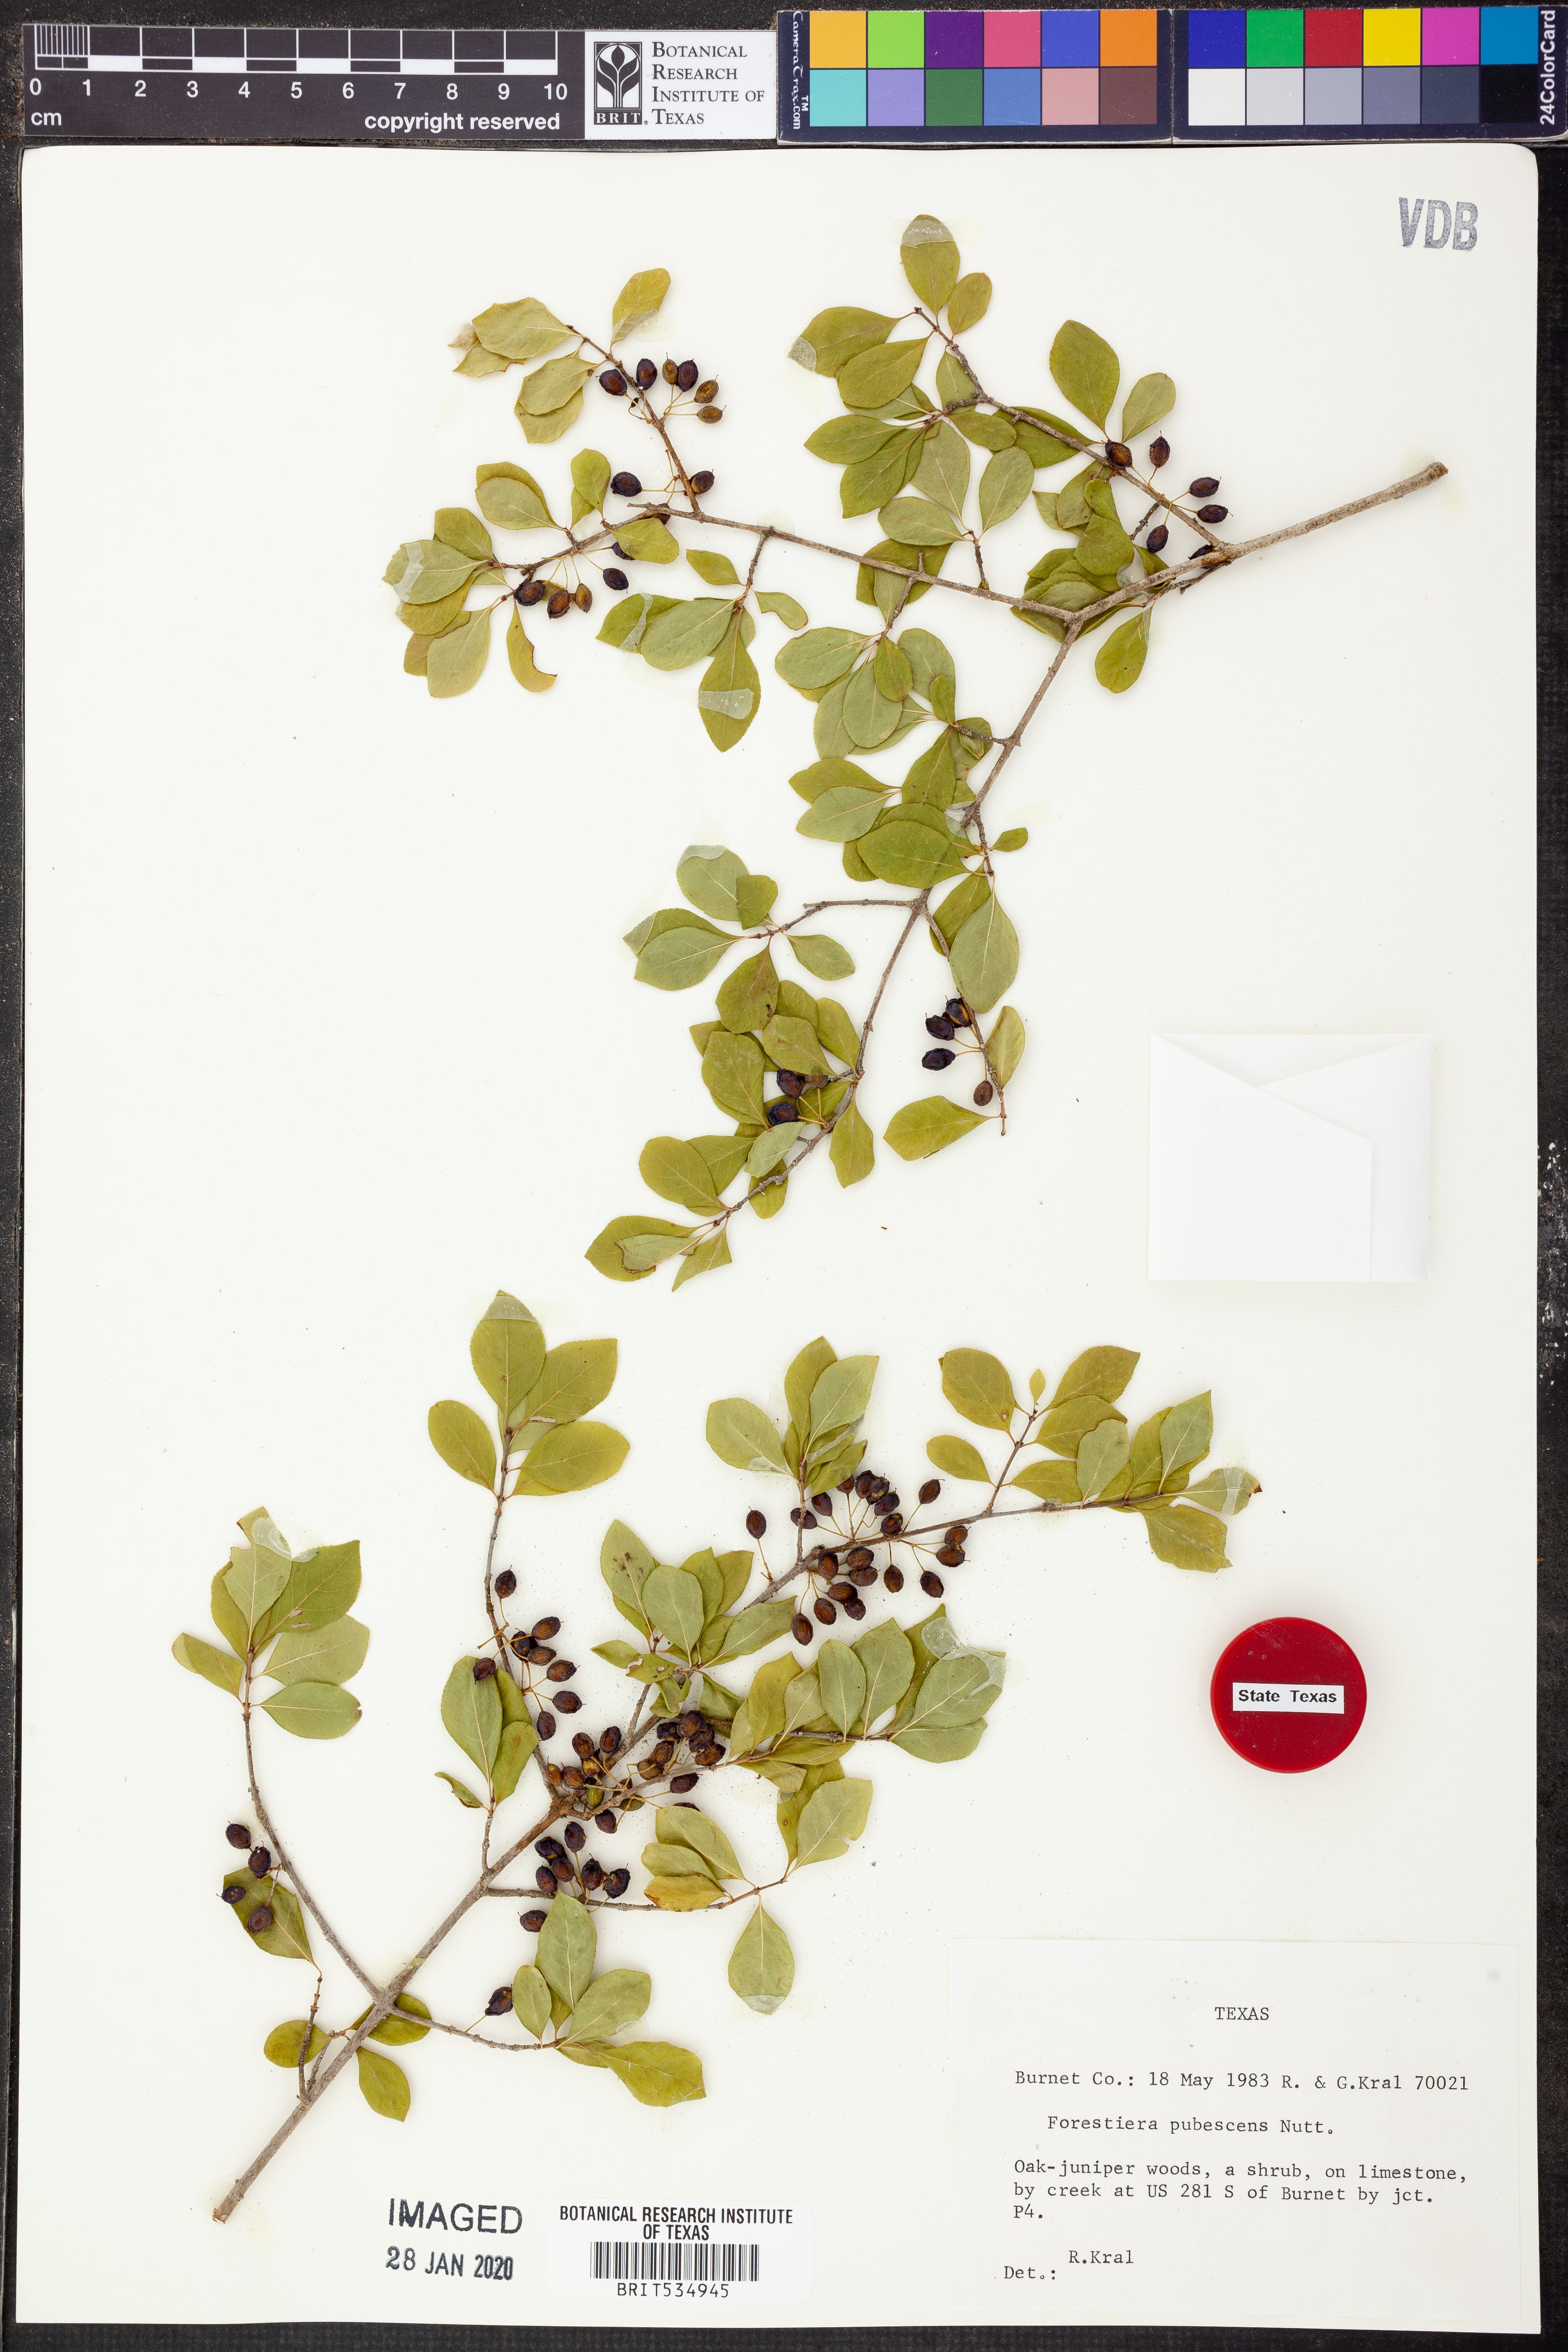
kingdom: Plantae
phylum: Tracheophyta
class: Magnoliopsida
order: Lamiales
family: Oleaceae
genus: Forestiera
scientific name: Forestiera pubescens
